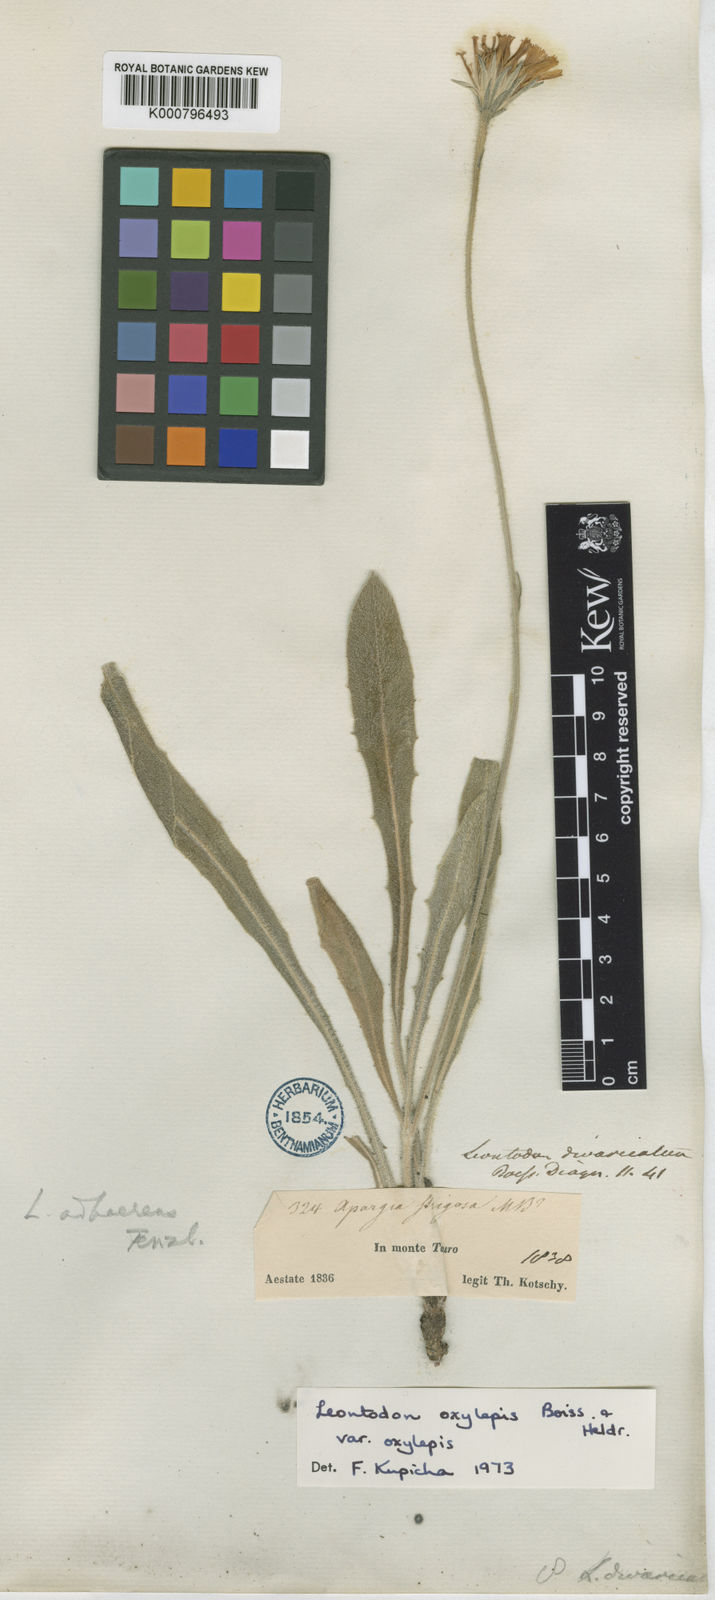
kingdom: Plantae
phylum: Tracheophyta
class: Magnoliopsida
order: Asterales
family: Asteraceae
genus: Leontodon
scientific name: Leontodon oxylepis
